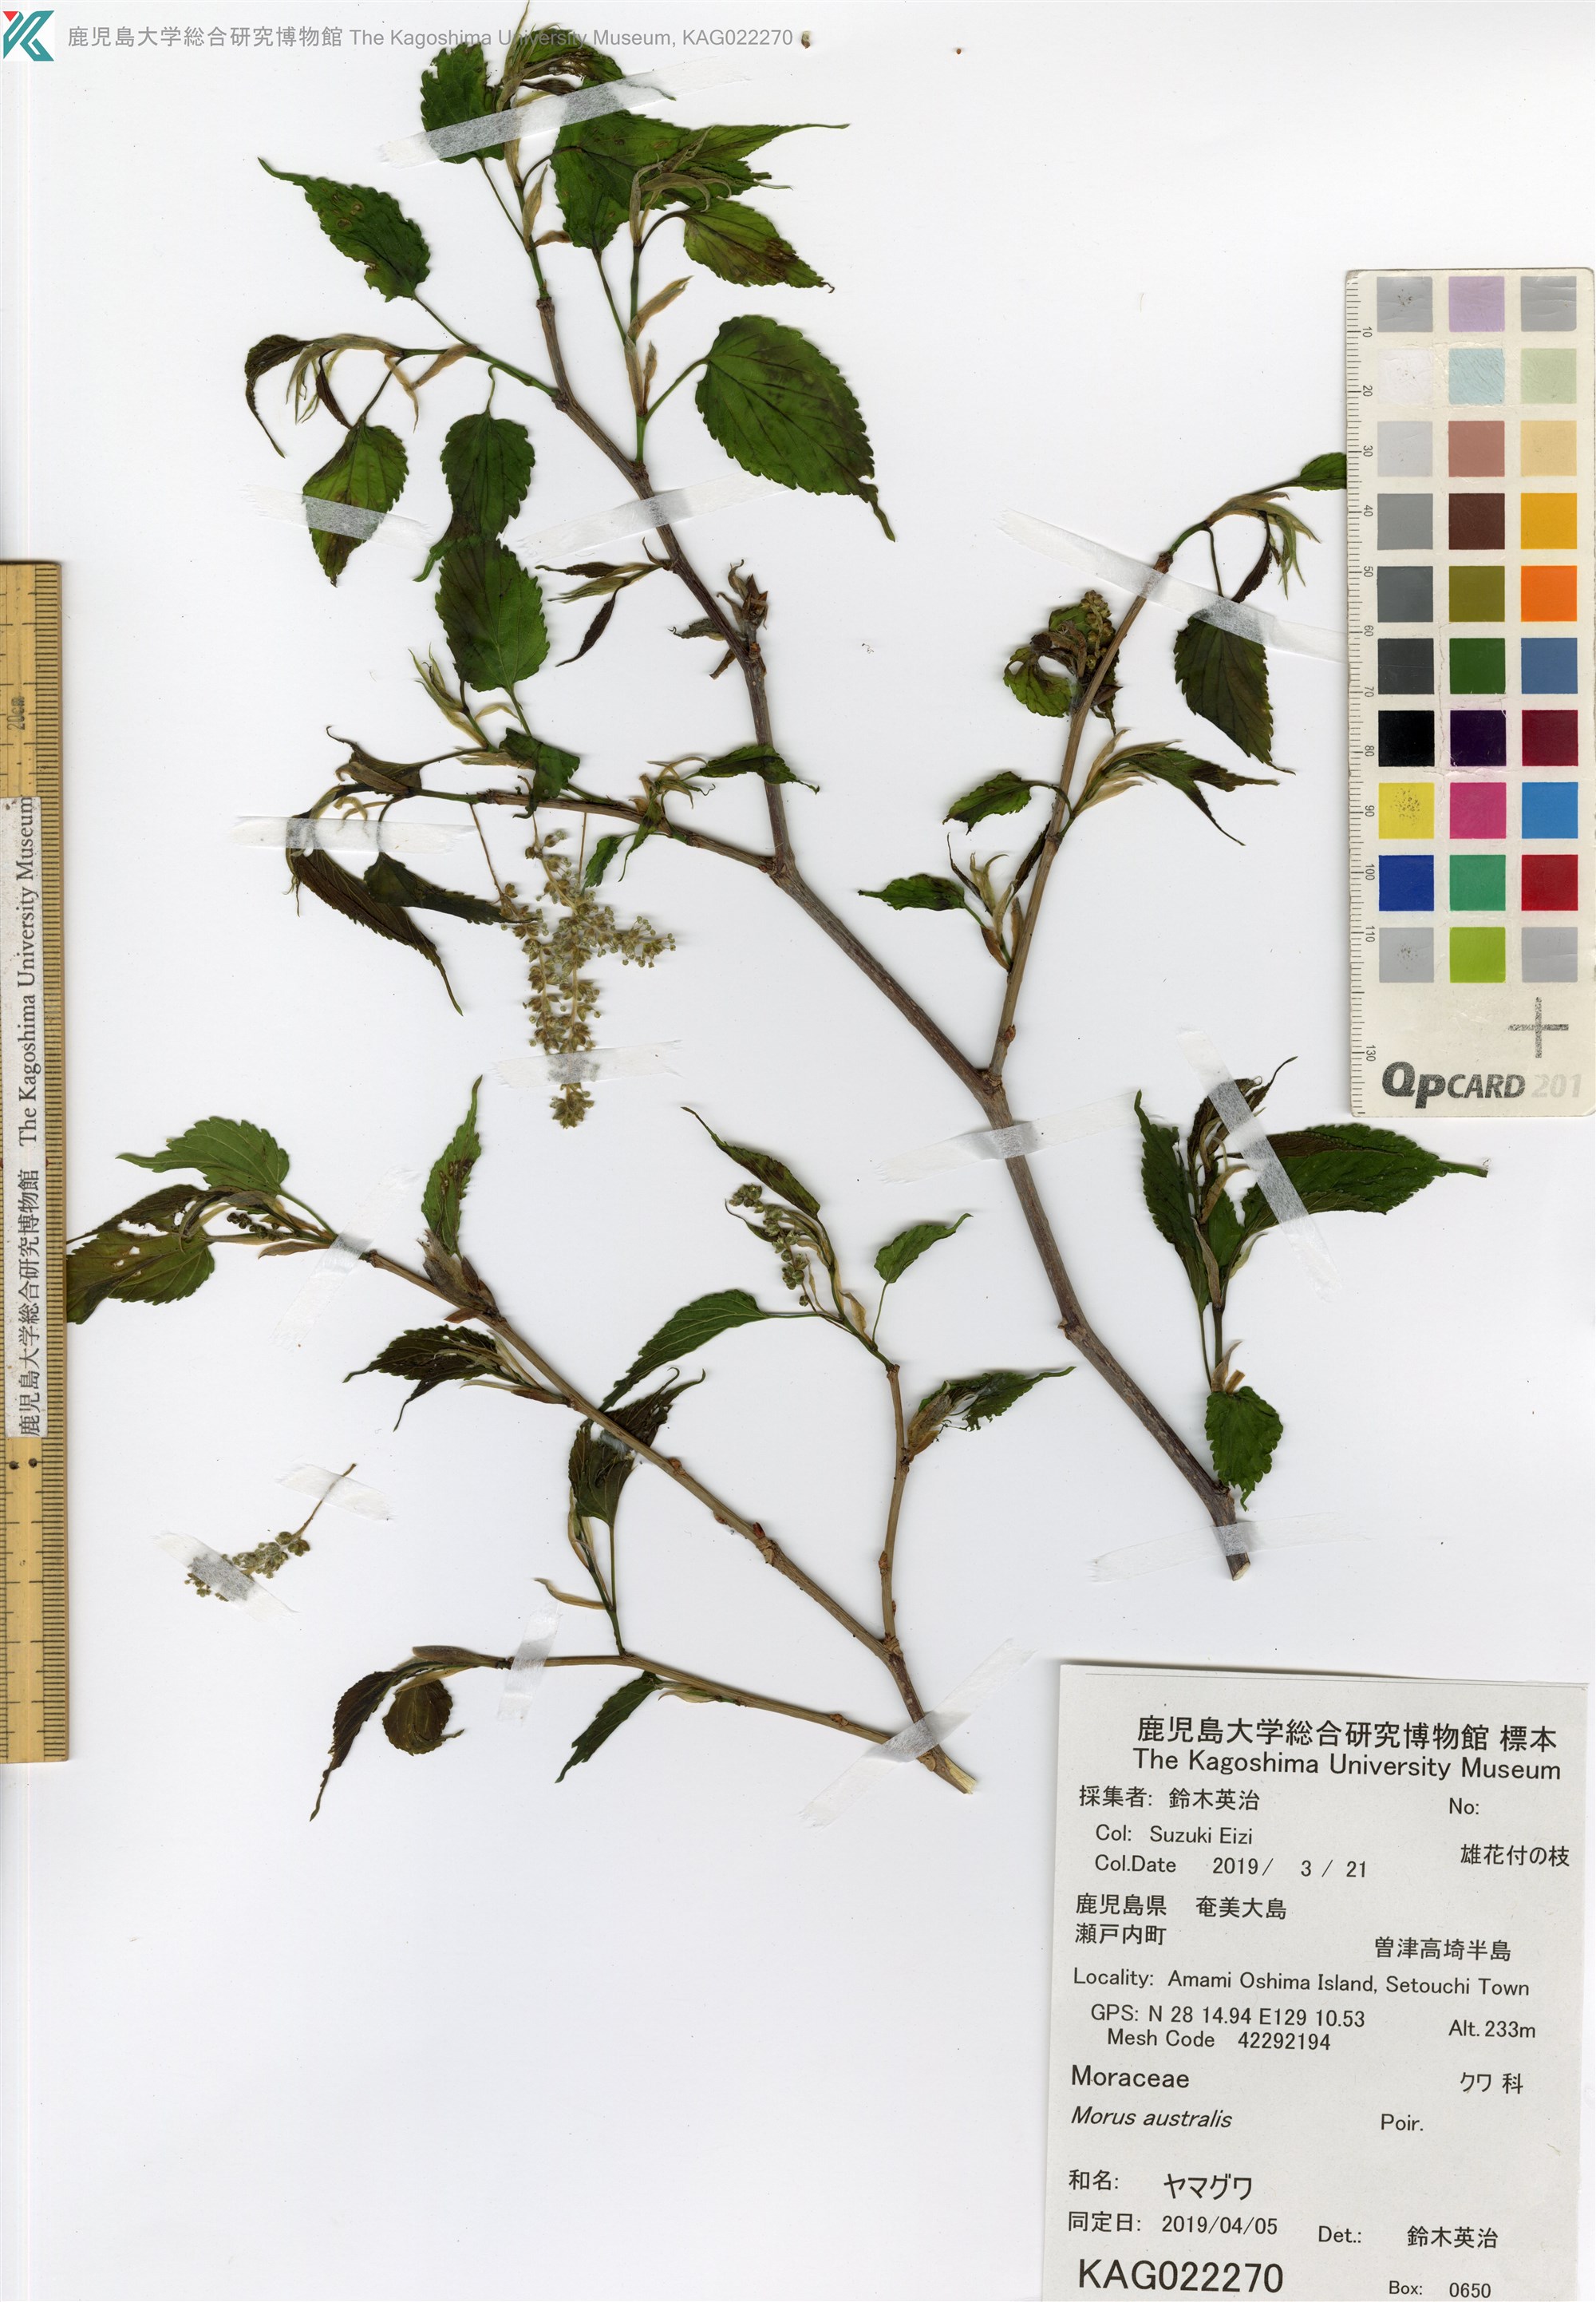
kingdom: Plantae
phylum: Tracheophyta
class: Magnoliopsida
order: Rosales
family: Moraceae
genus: Broussonetia
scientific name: Broussonetia papyrifera
